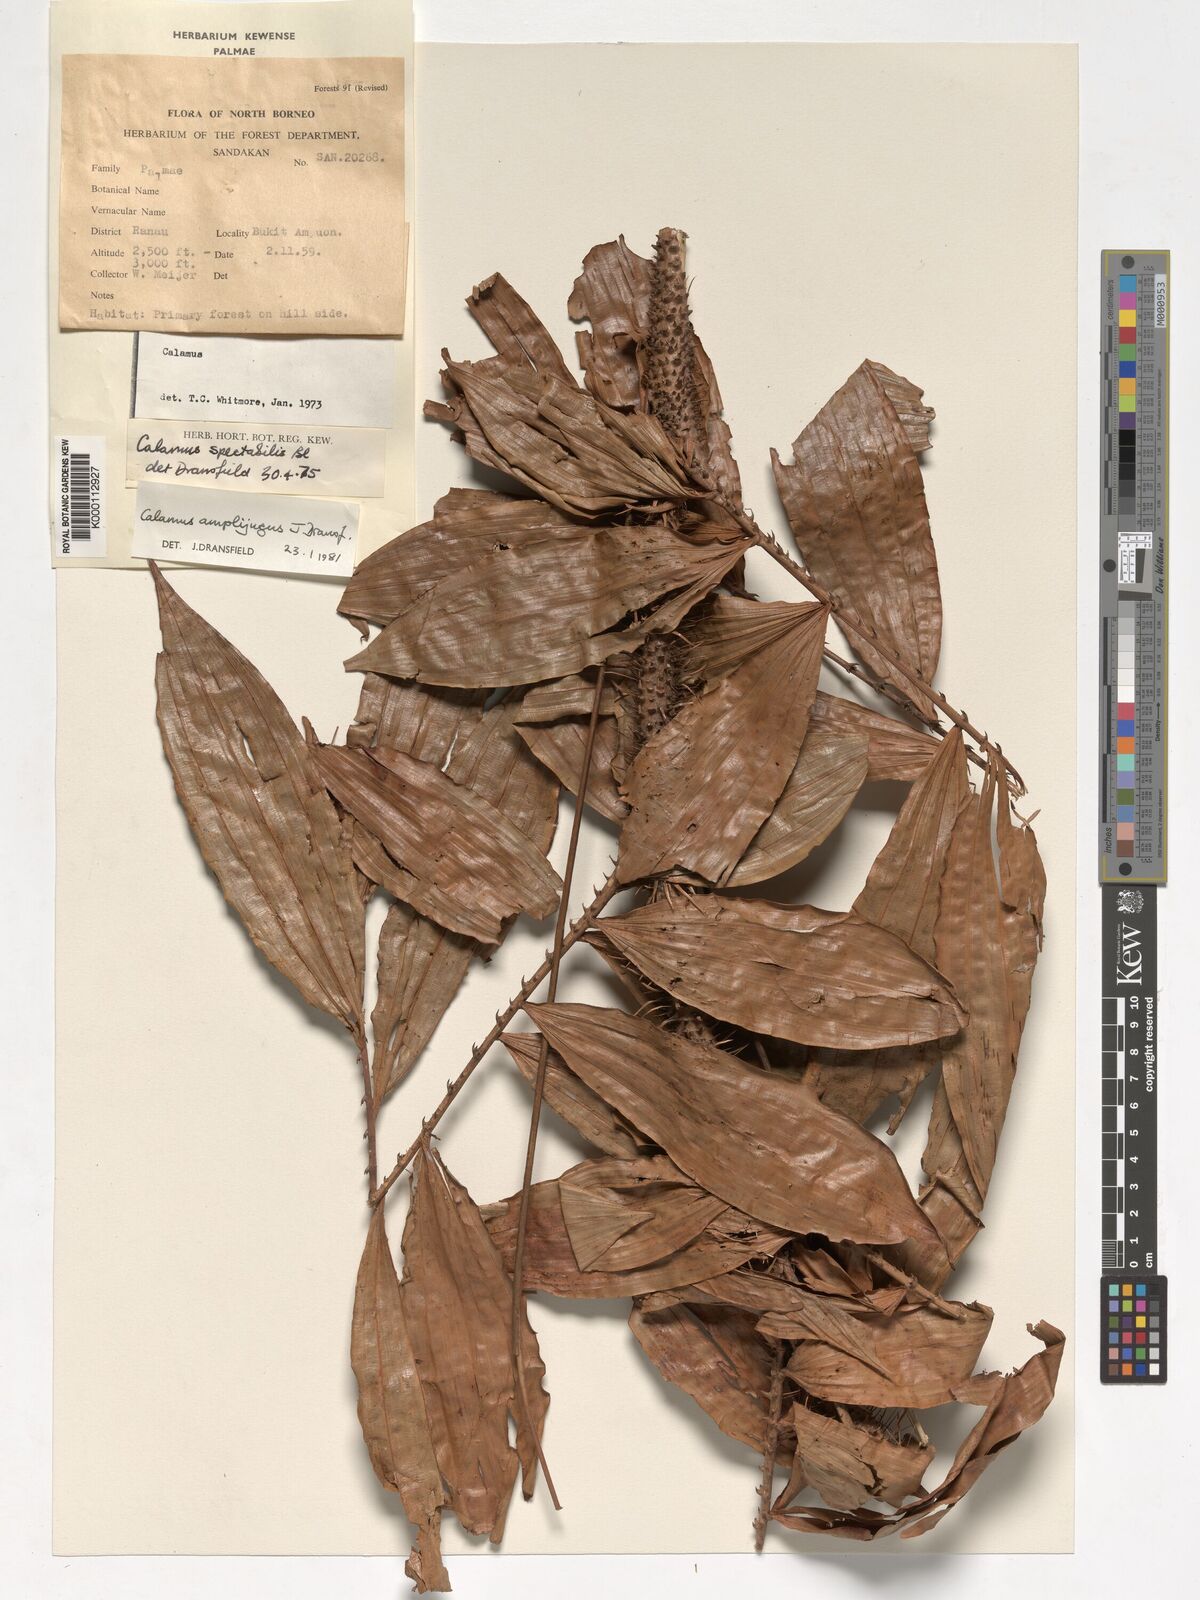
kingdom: Plantae
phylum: Tracheophyta
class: Liliopsida
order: Arecales
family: Arecaceae
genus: Calamus
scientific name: Calamus javensis
